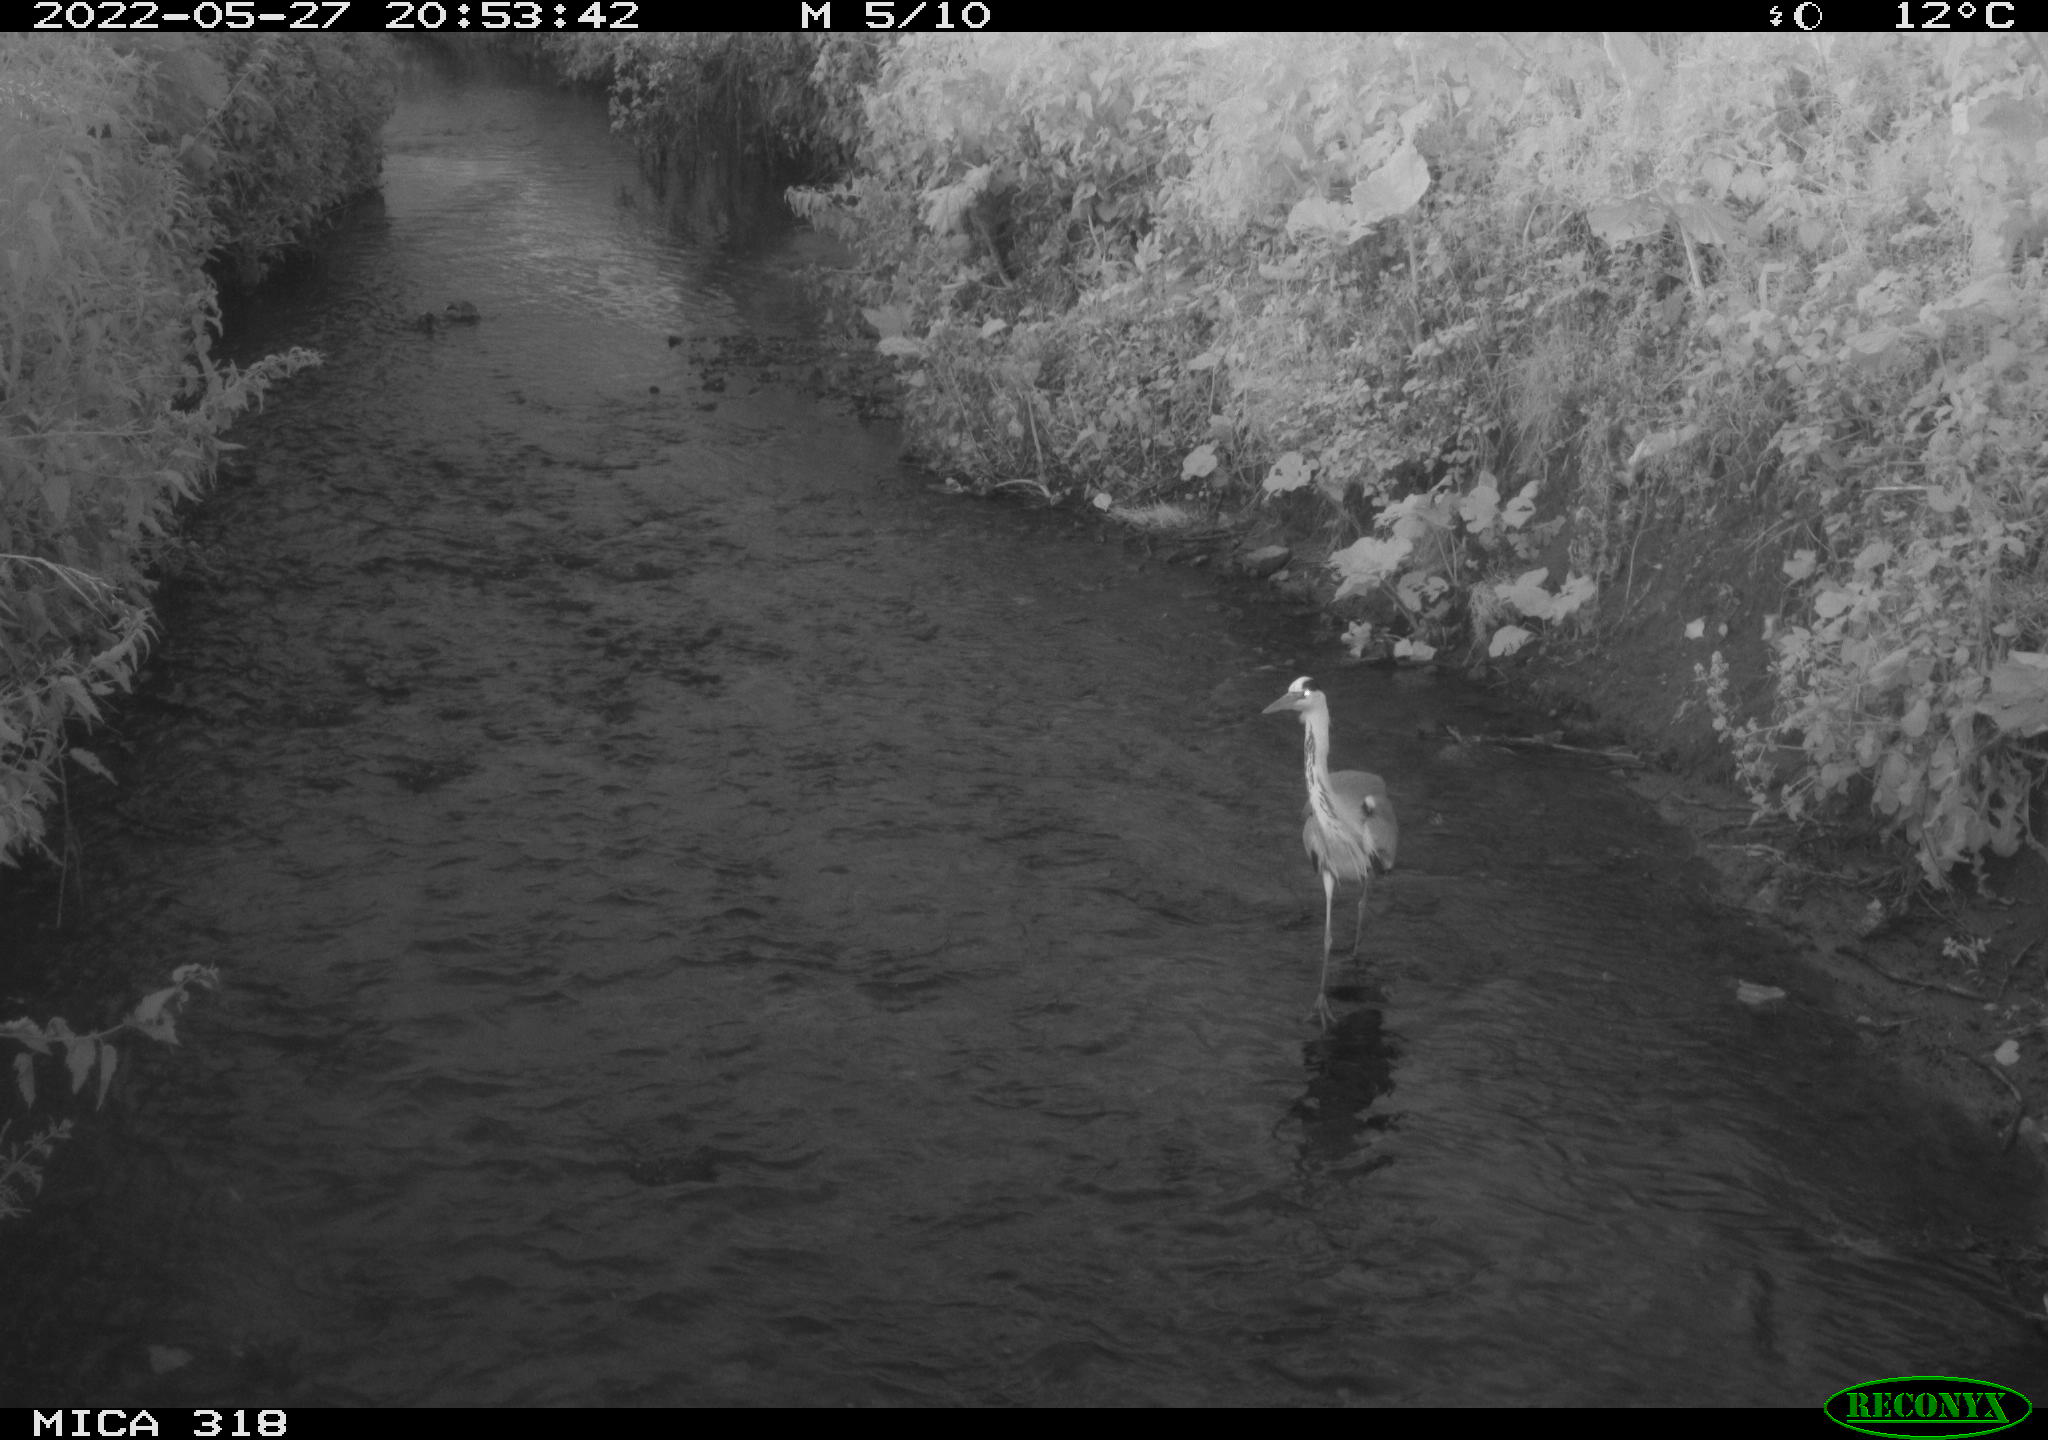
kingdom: Animalia
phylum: Chordata
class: Aves
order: Pelecaniformes
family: Ardeidae
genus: Ardea
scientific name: Ardea cinerea
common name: Grey heron
